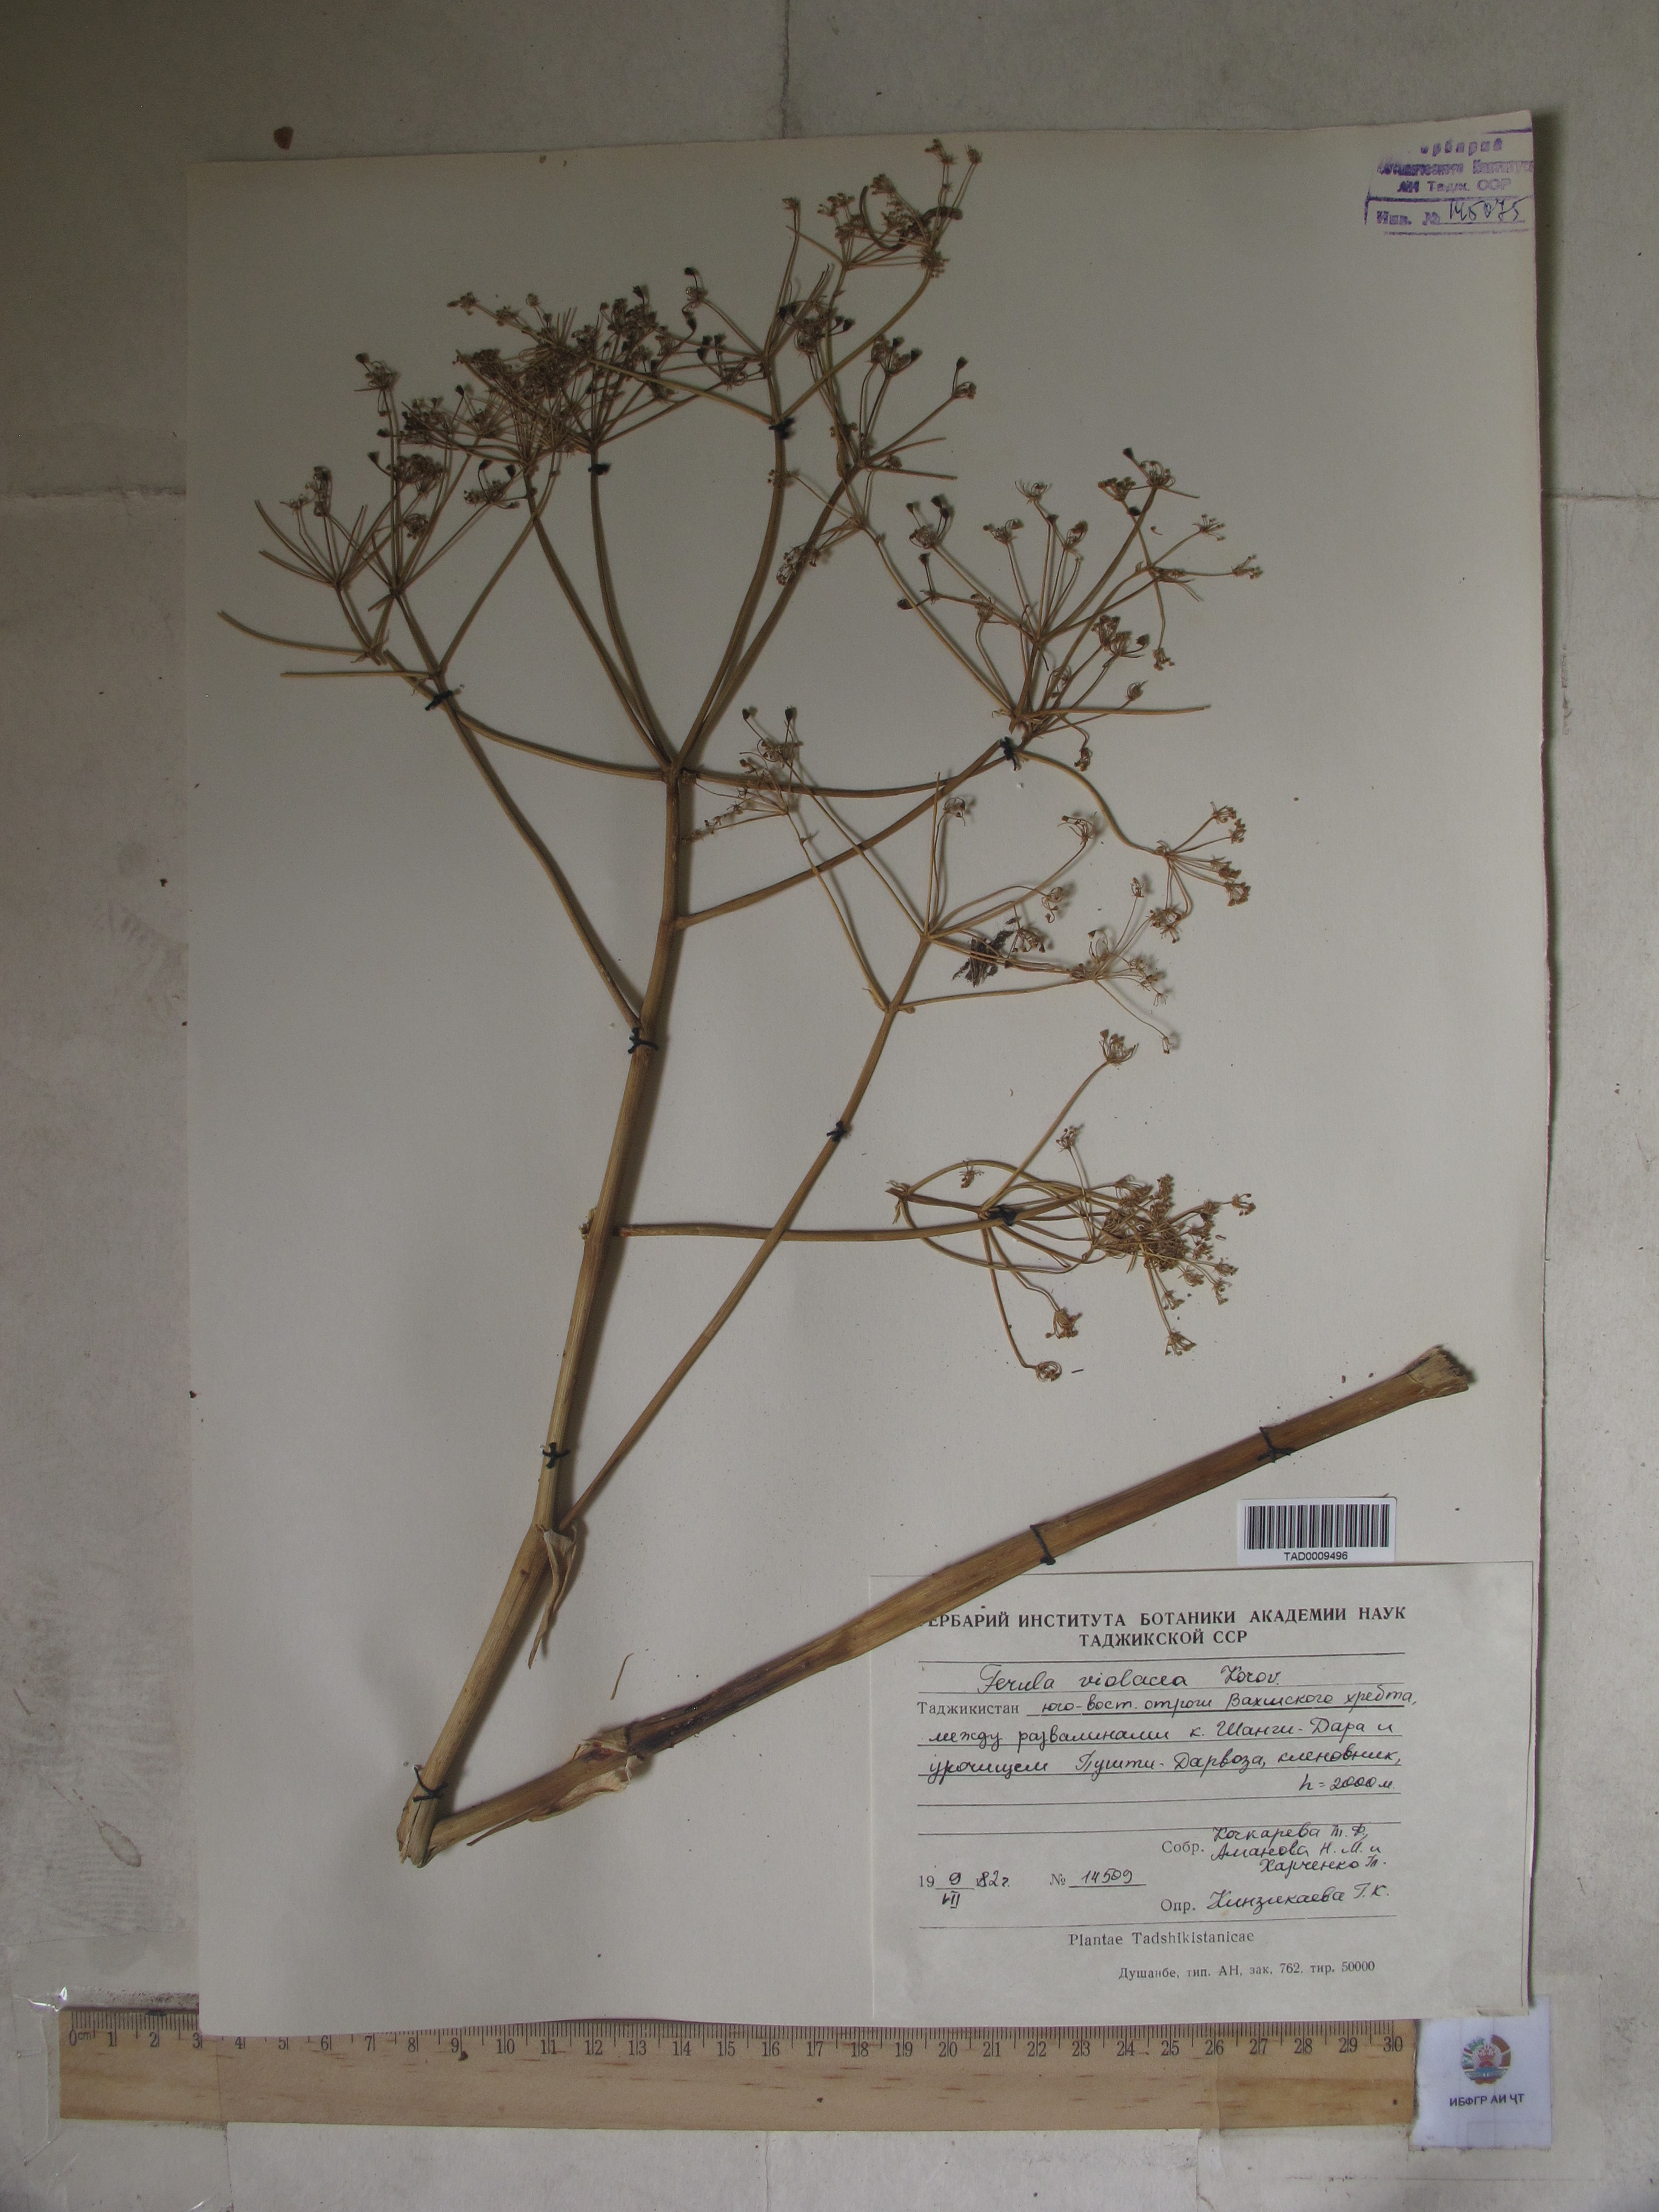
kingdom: Plantae
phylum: Tracheophyta
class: Magnoliopsida
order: Apiales
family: Apiaceae
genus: Ferula
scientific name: Ferula violacea
